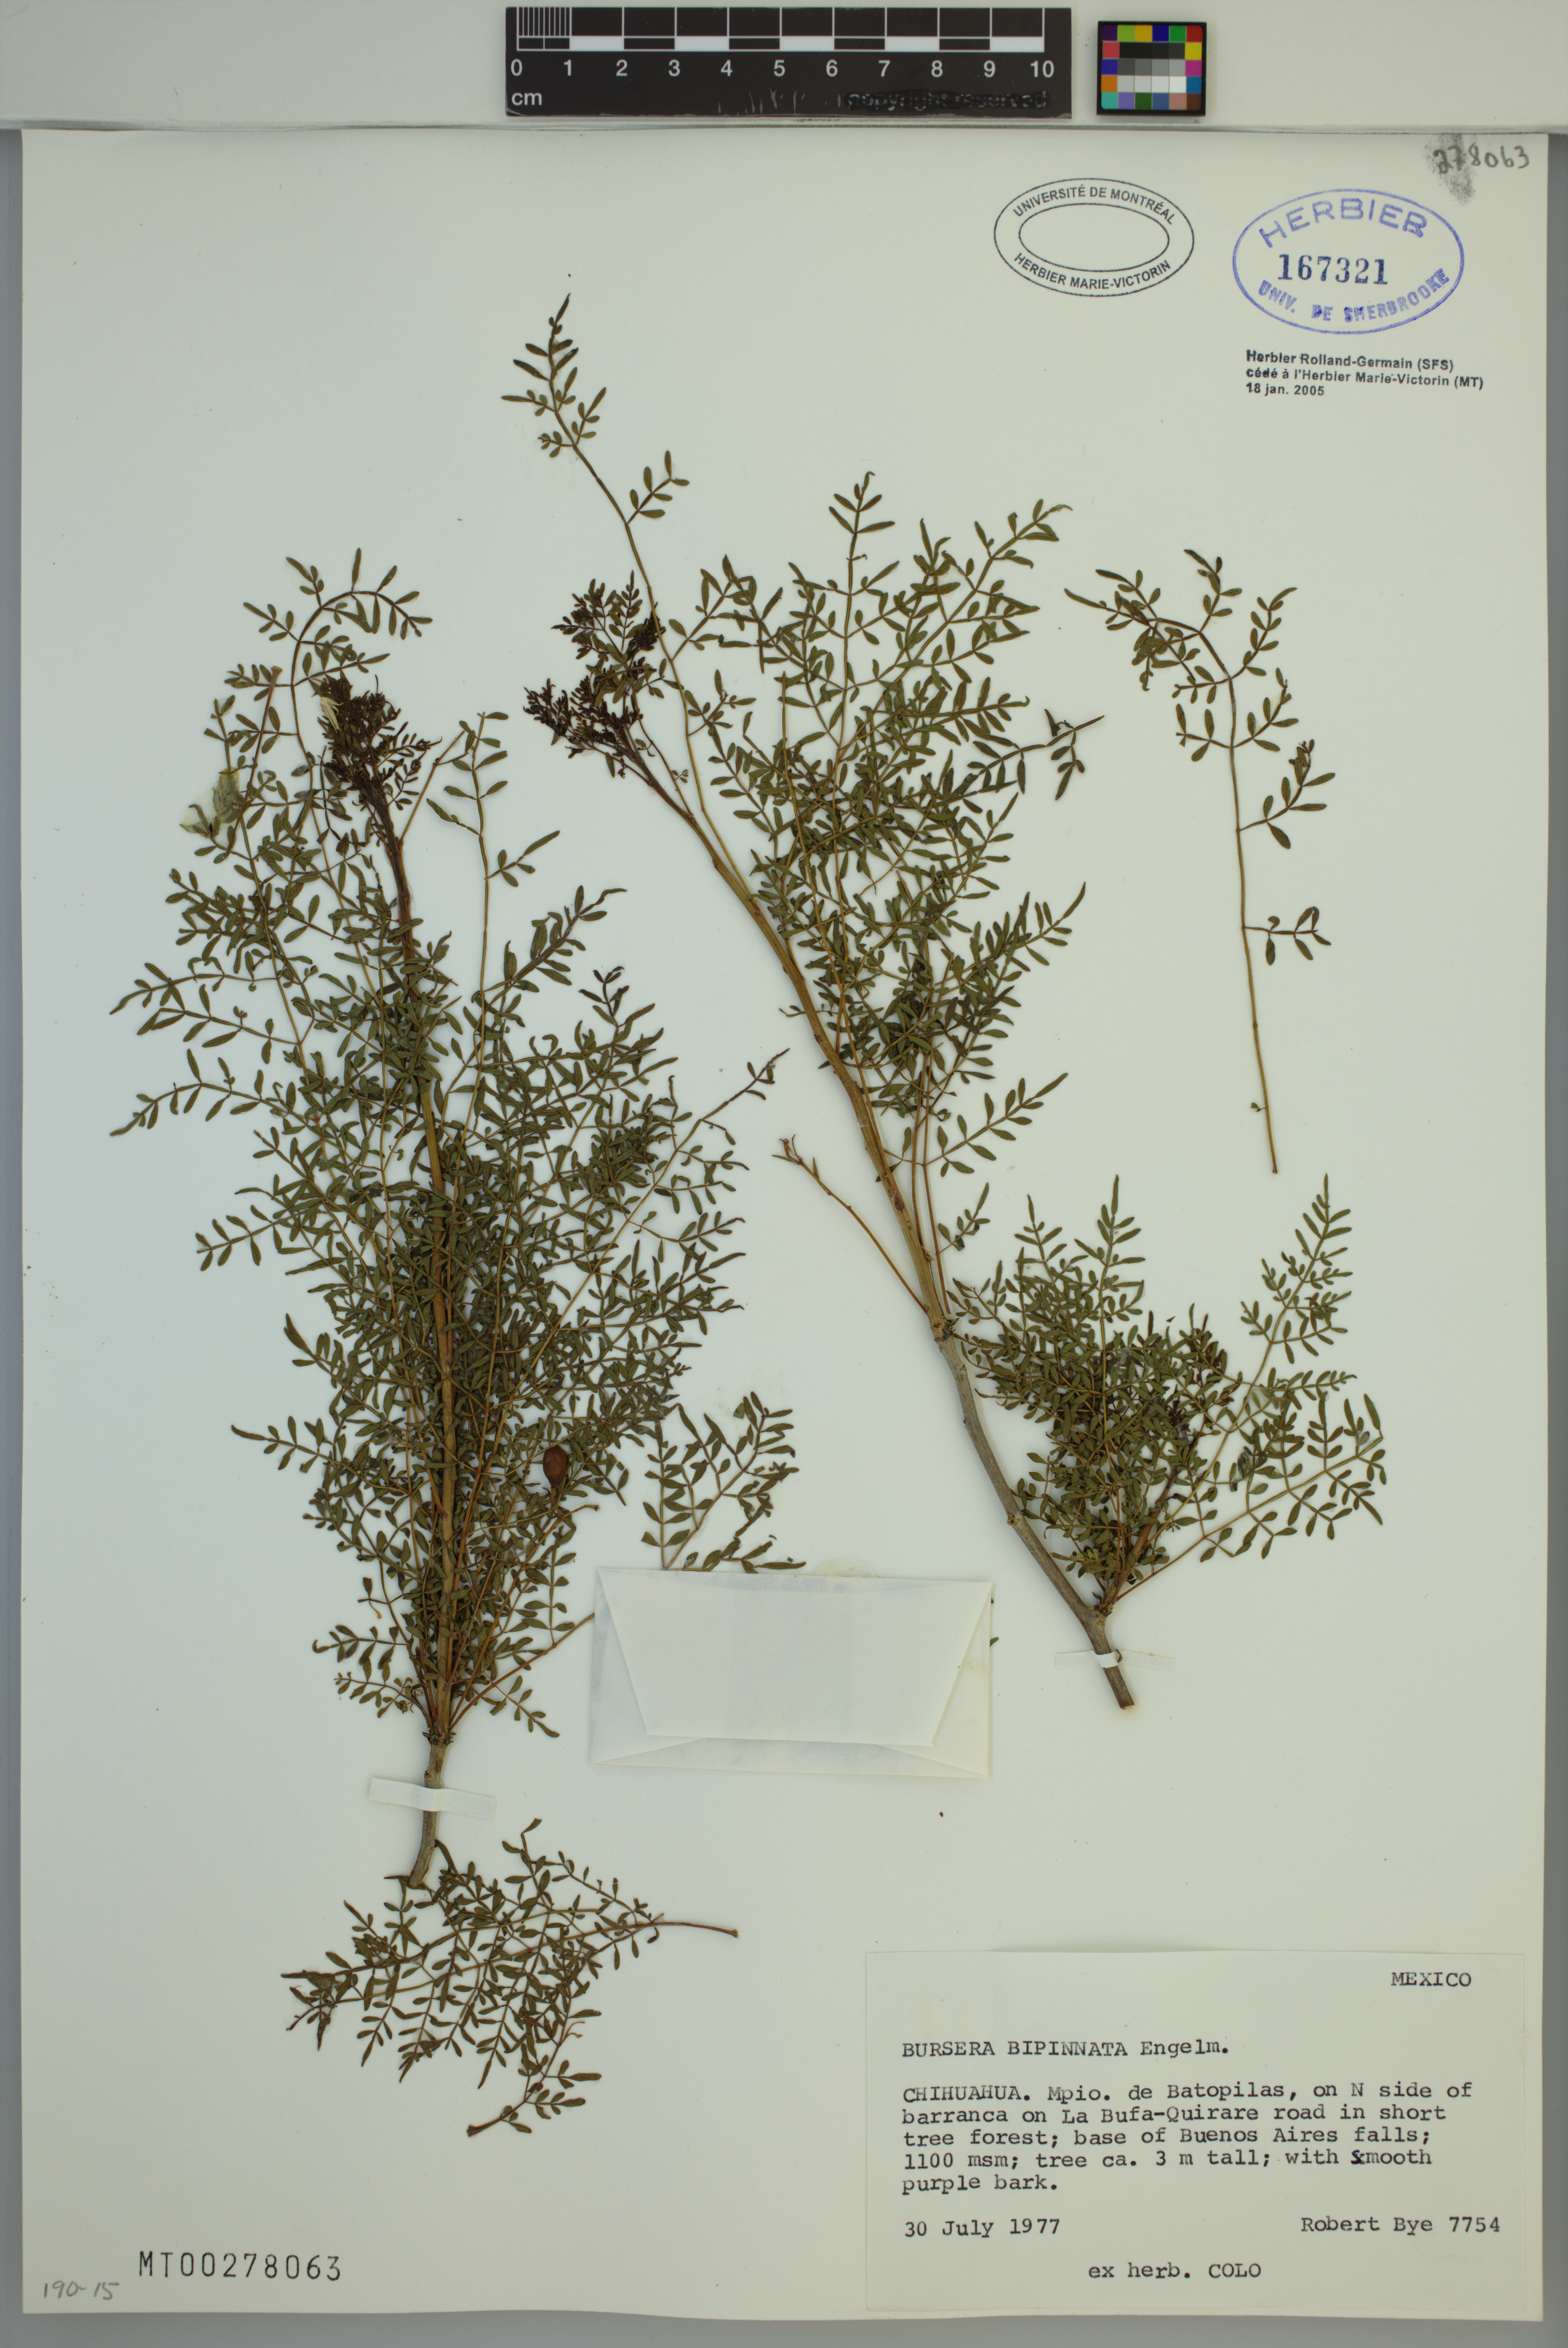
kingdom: Plantae
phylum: Tracheophyta
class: Magnoliopsida
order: Sapindales
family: Burseraceae
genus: Bursera
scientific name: Bursera bipinnata
